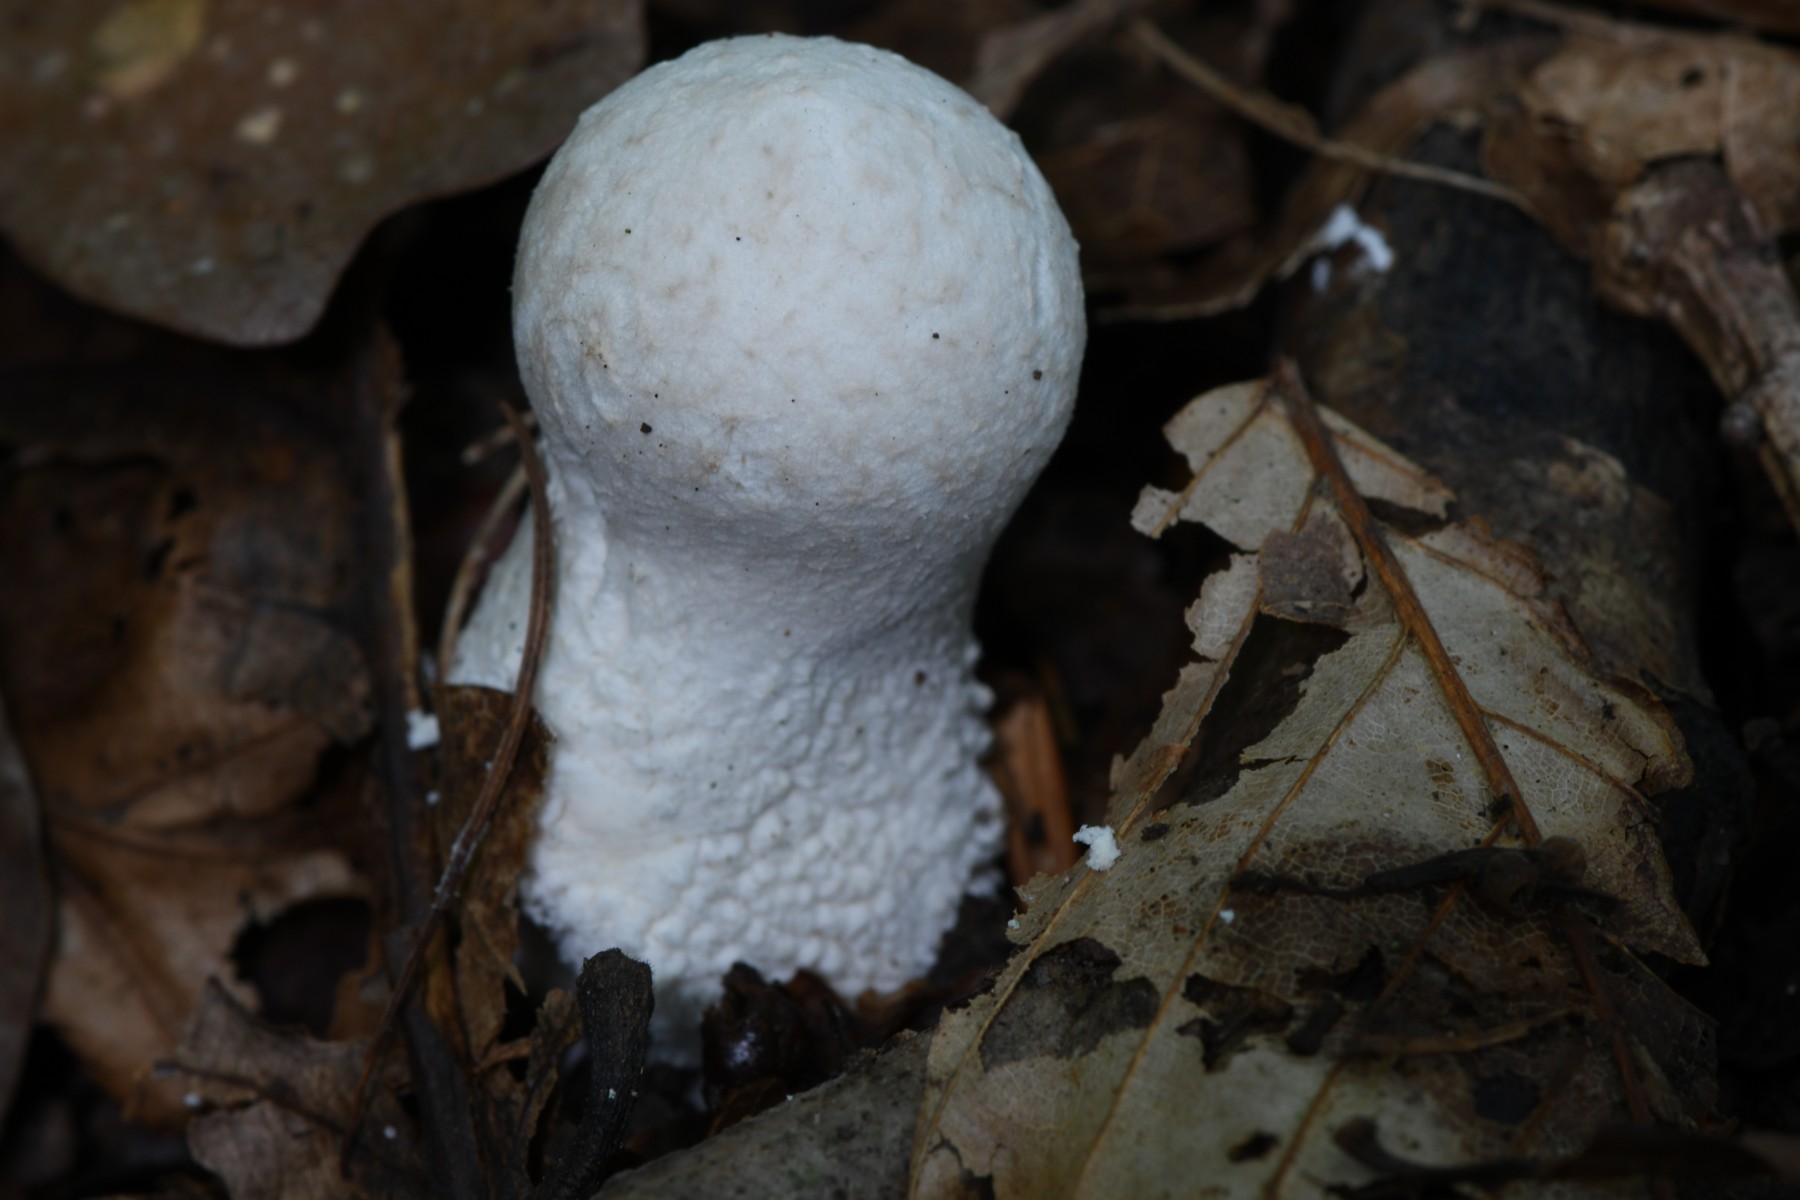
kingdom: Fungi
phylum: Basidiomycota
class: Agaricomycetes
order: Agaricales
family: Lycoperdaceae
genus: Lycoperdon
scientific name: Lycoperdon mammiforme
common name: rosa støvbold
